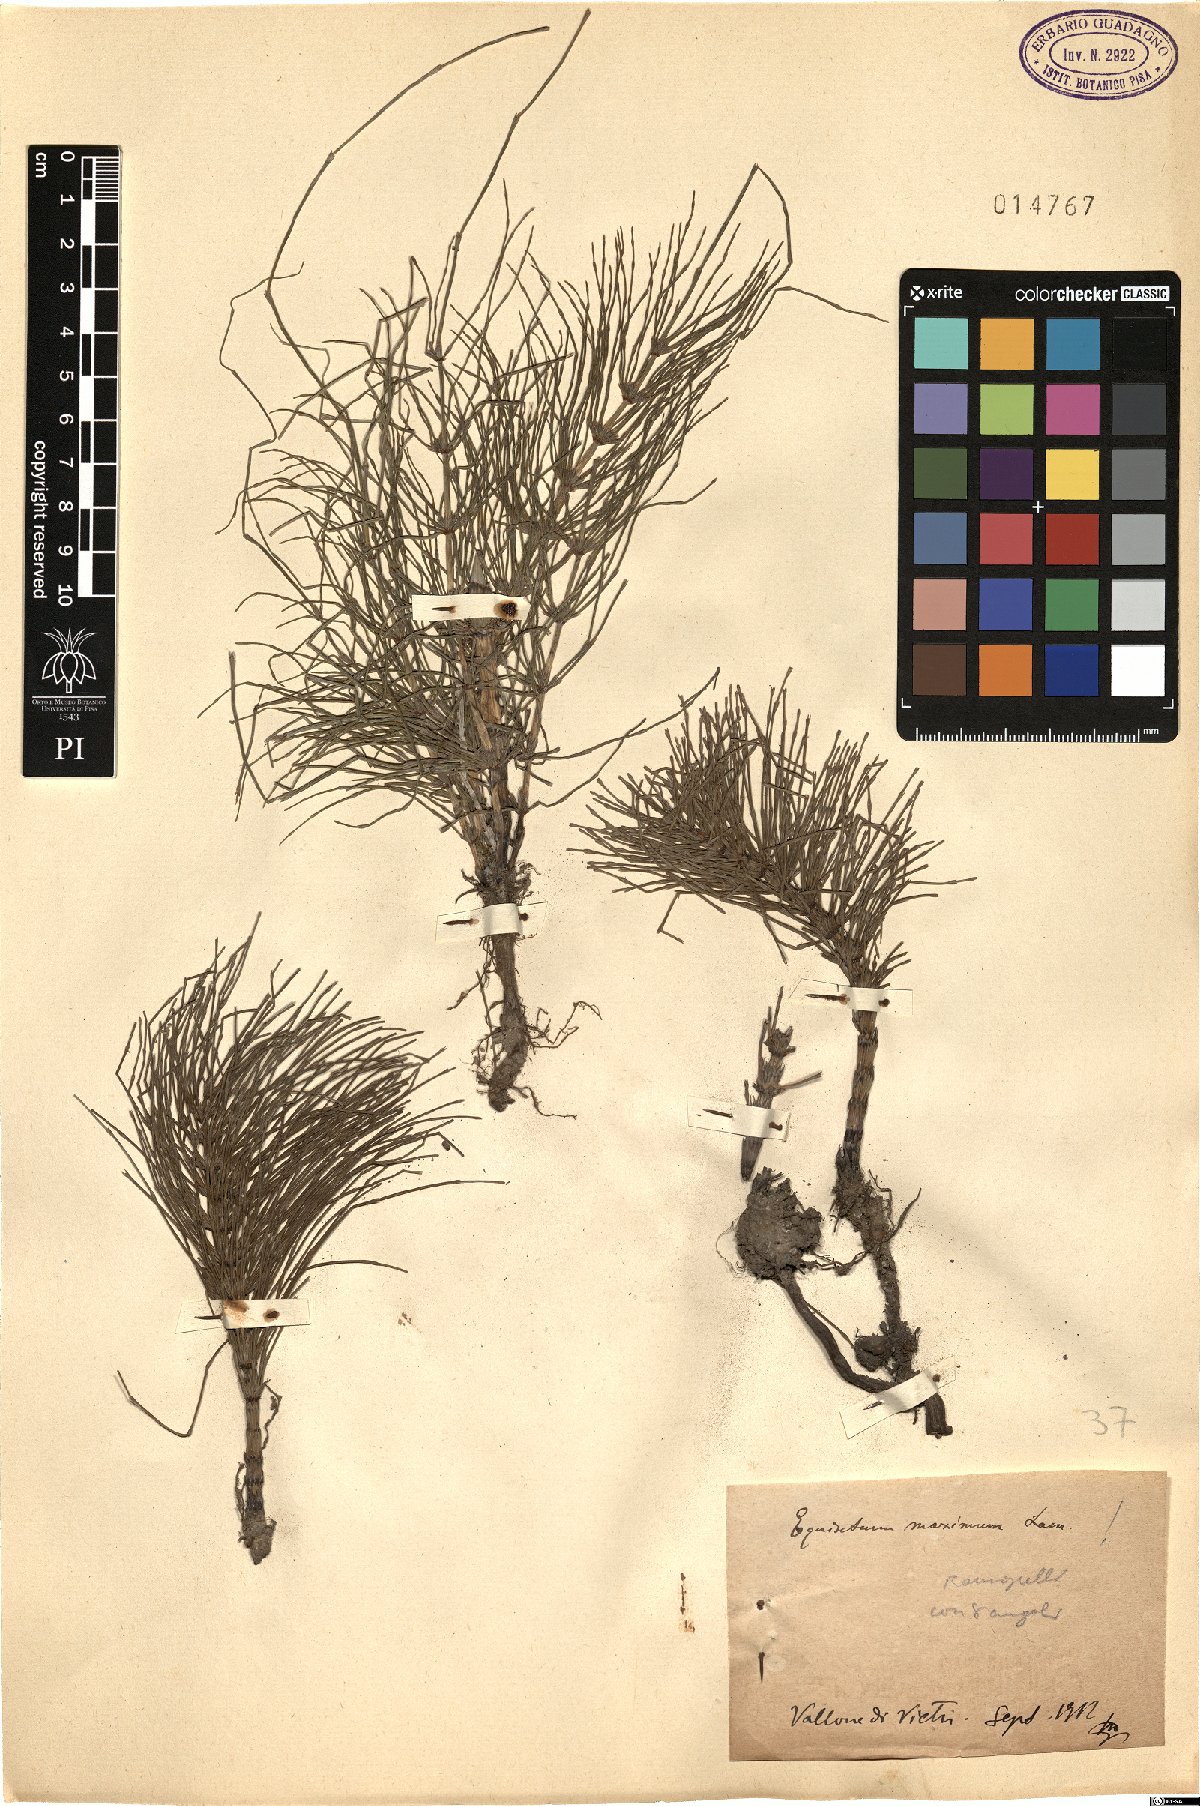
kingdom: Plantae
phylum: Tracheophyta
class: Polypodiopsida
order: Equisetales
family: Equisetaceae
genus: Equisetum
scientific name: Equisetum telmateia
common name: Great horsetail
